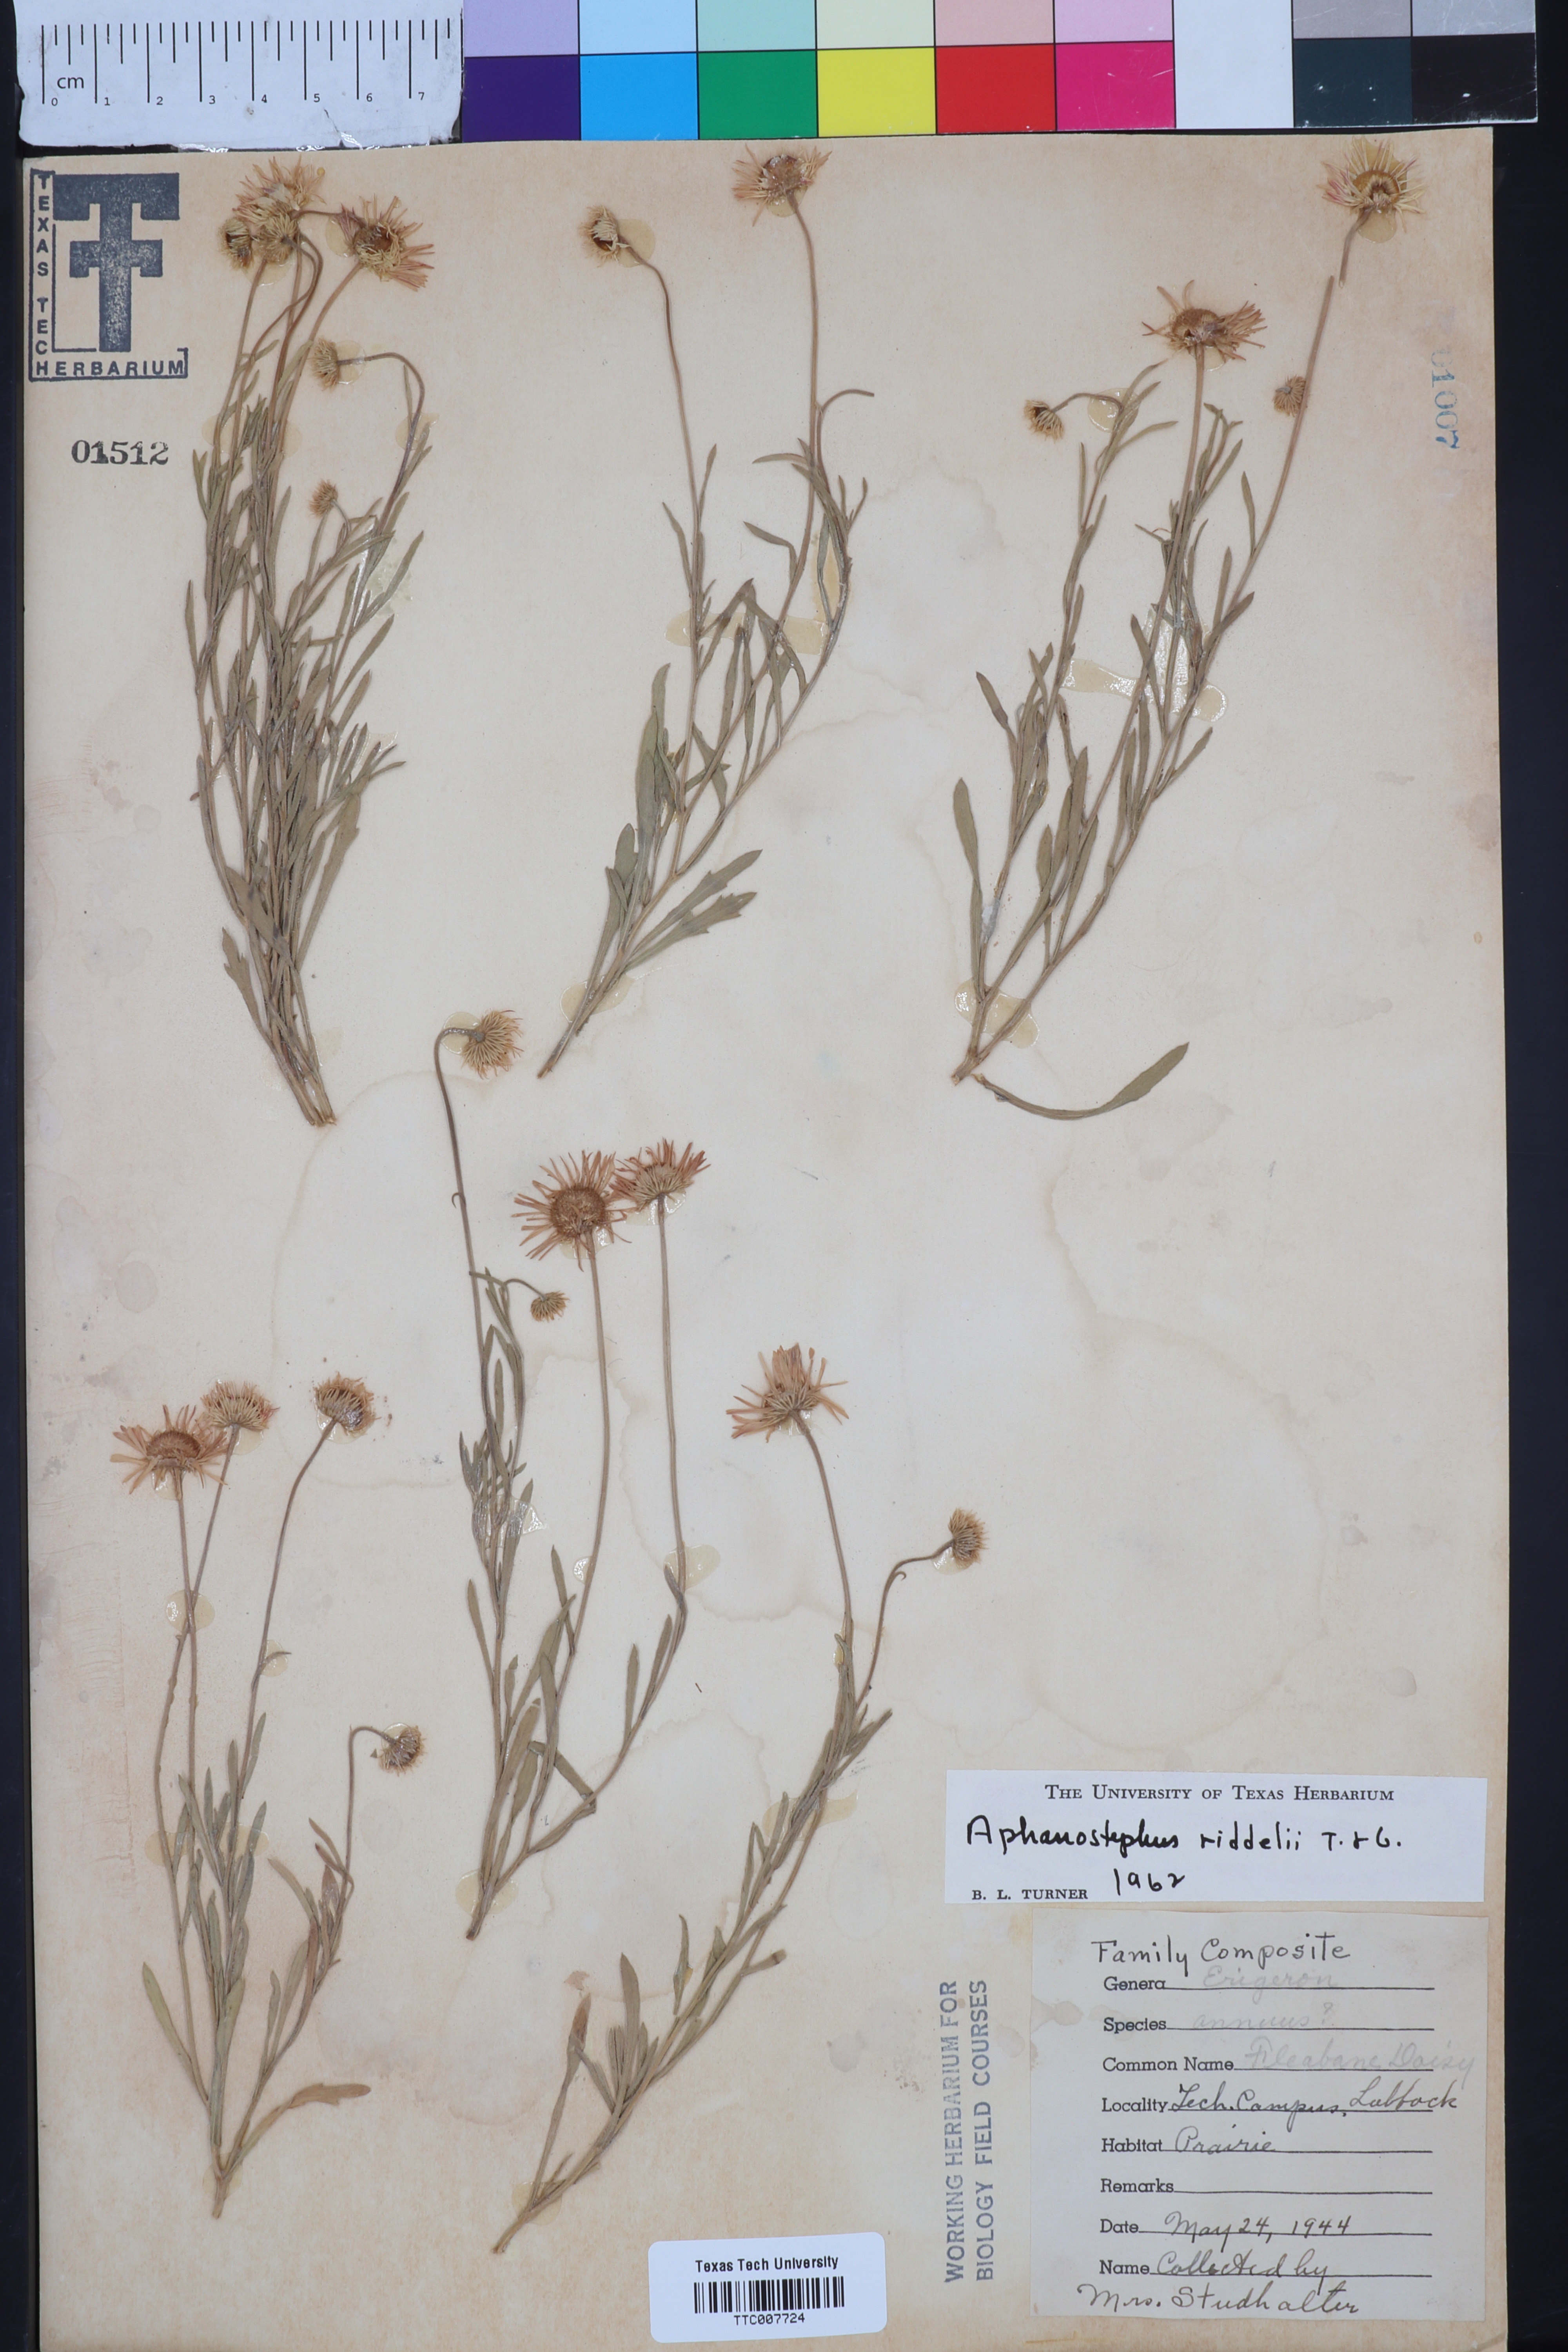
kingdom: Plantae
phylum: Tracheophyta
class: Magnoliopsida
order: Asterales
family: Asteraceae
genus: Aphanostephus
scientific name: Aphanostephus riddellii
